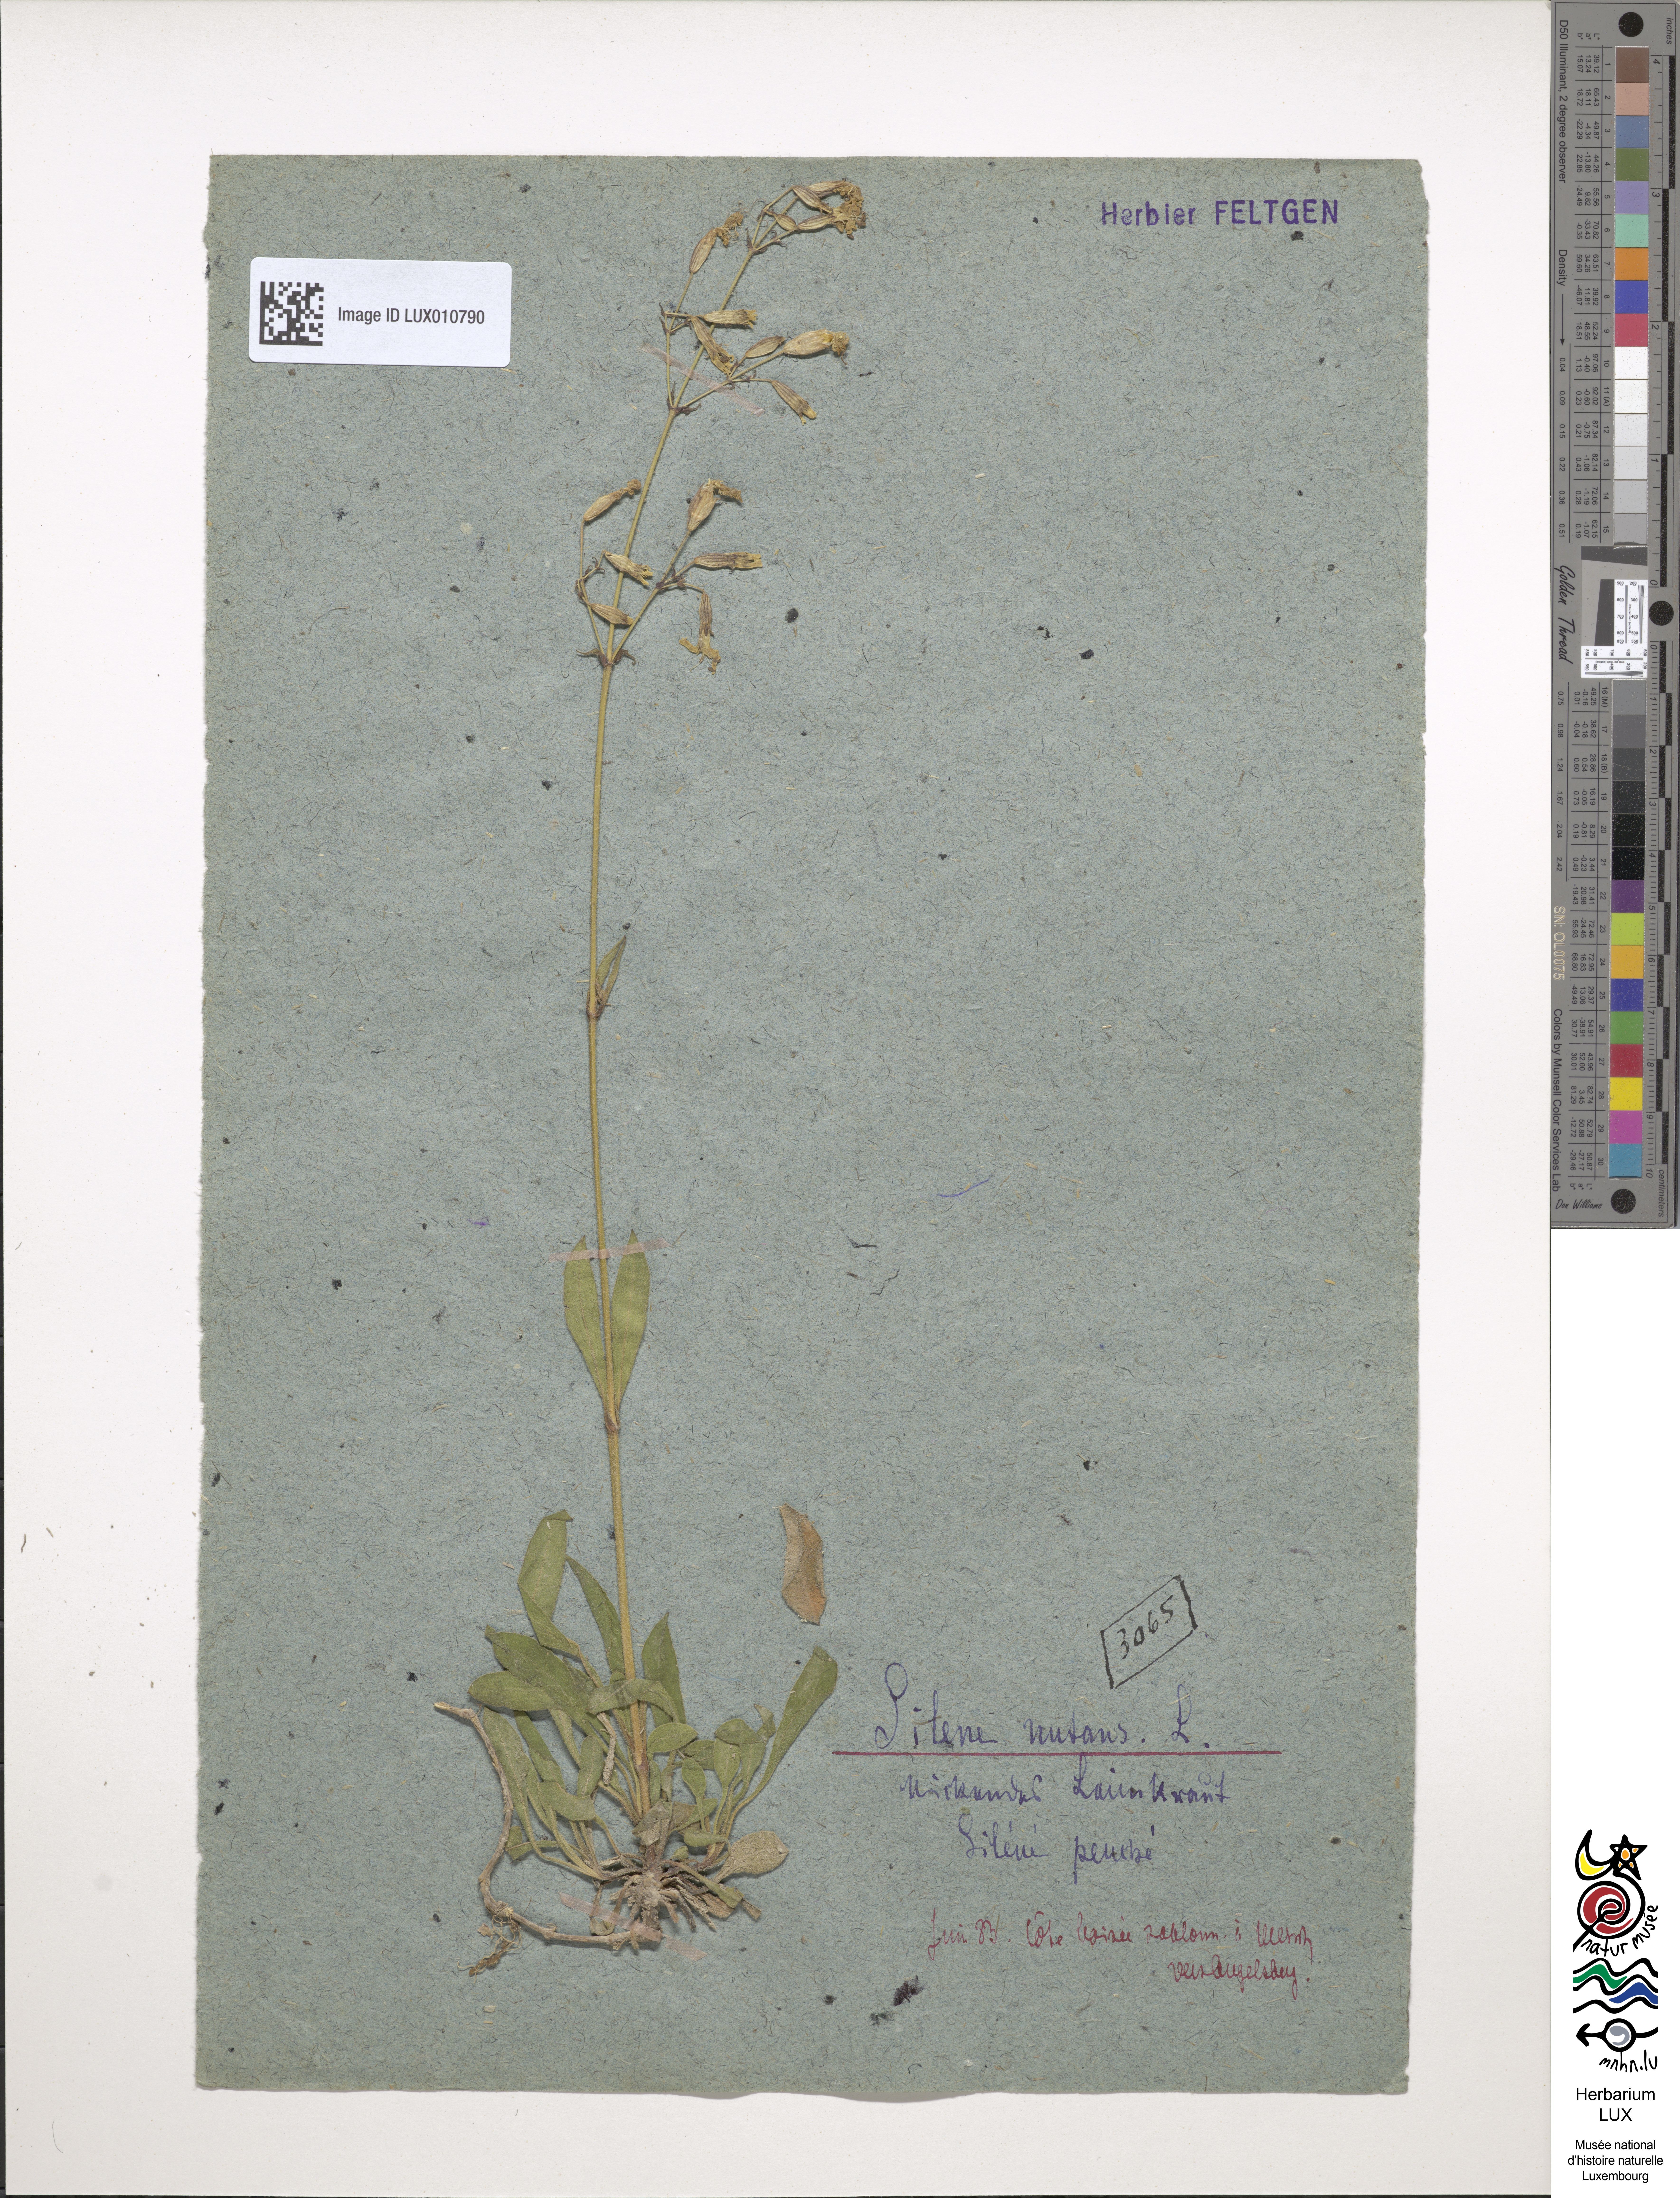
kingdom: Plantae
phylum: Tracheophyta
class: Magnoliopsida
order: Caryophyllales
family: Caryophyllaceae
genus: Silene
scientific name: Silene nutans
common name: Nottingham catchfly
